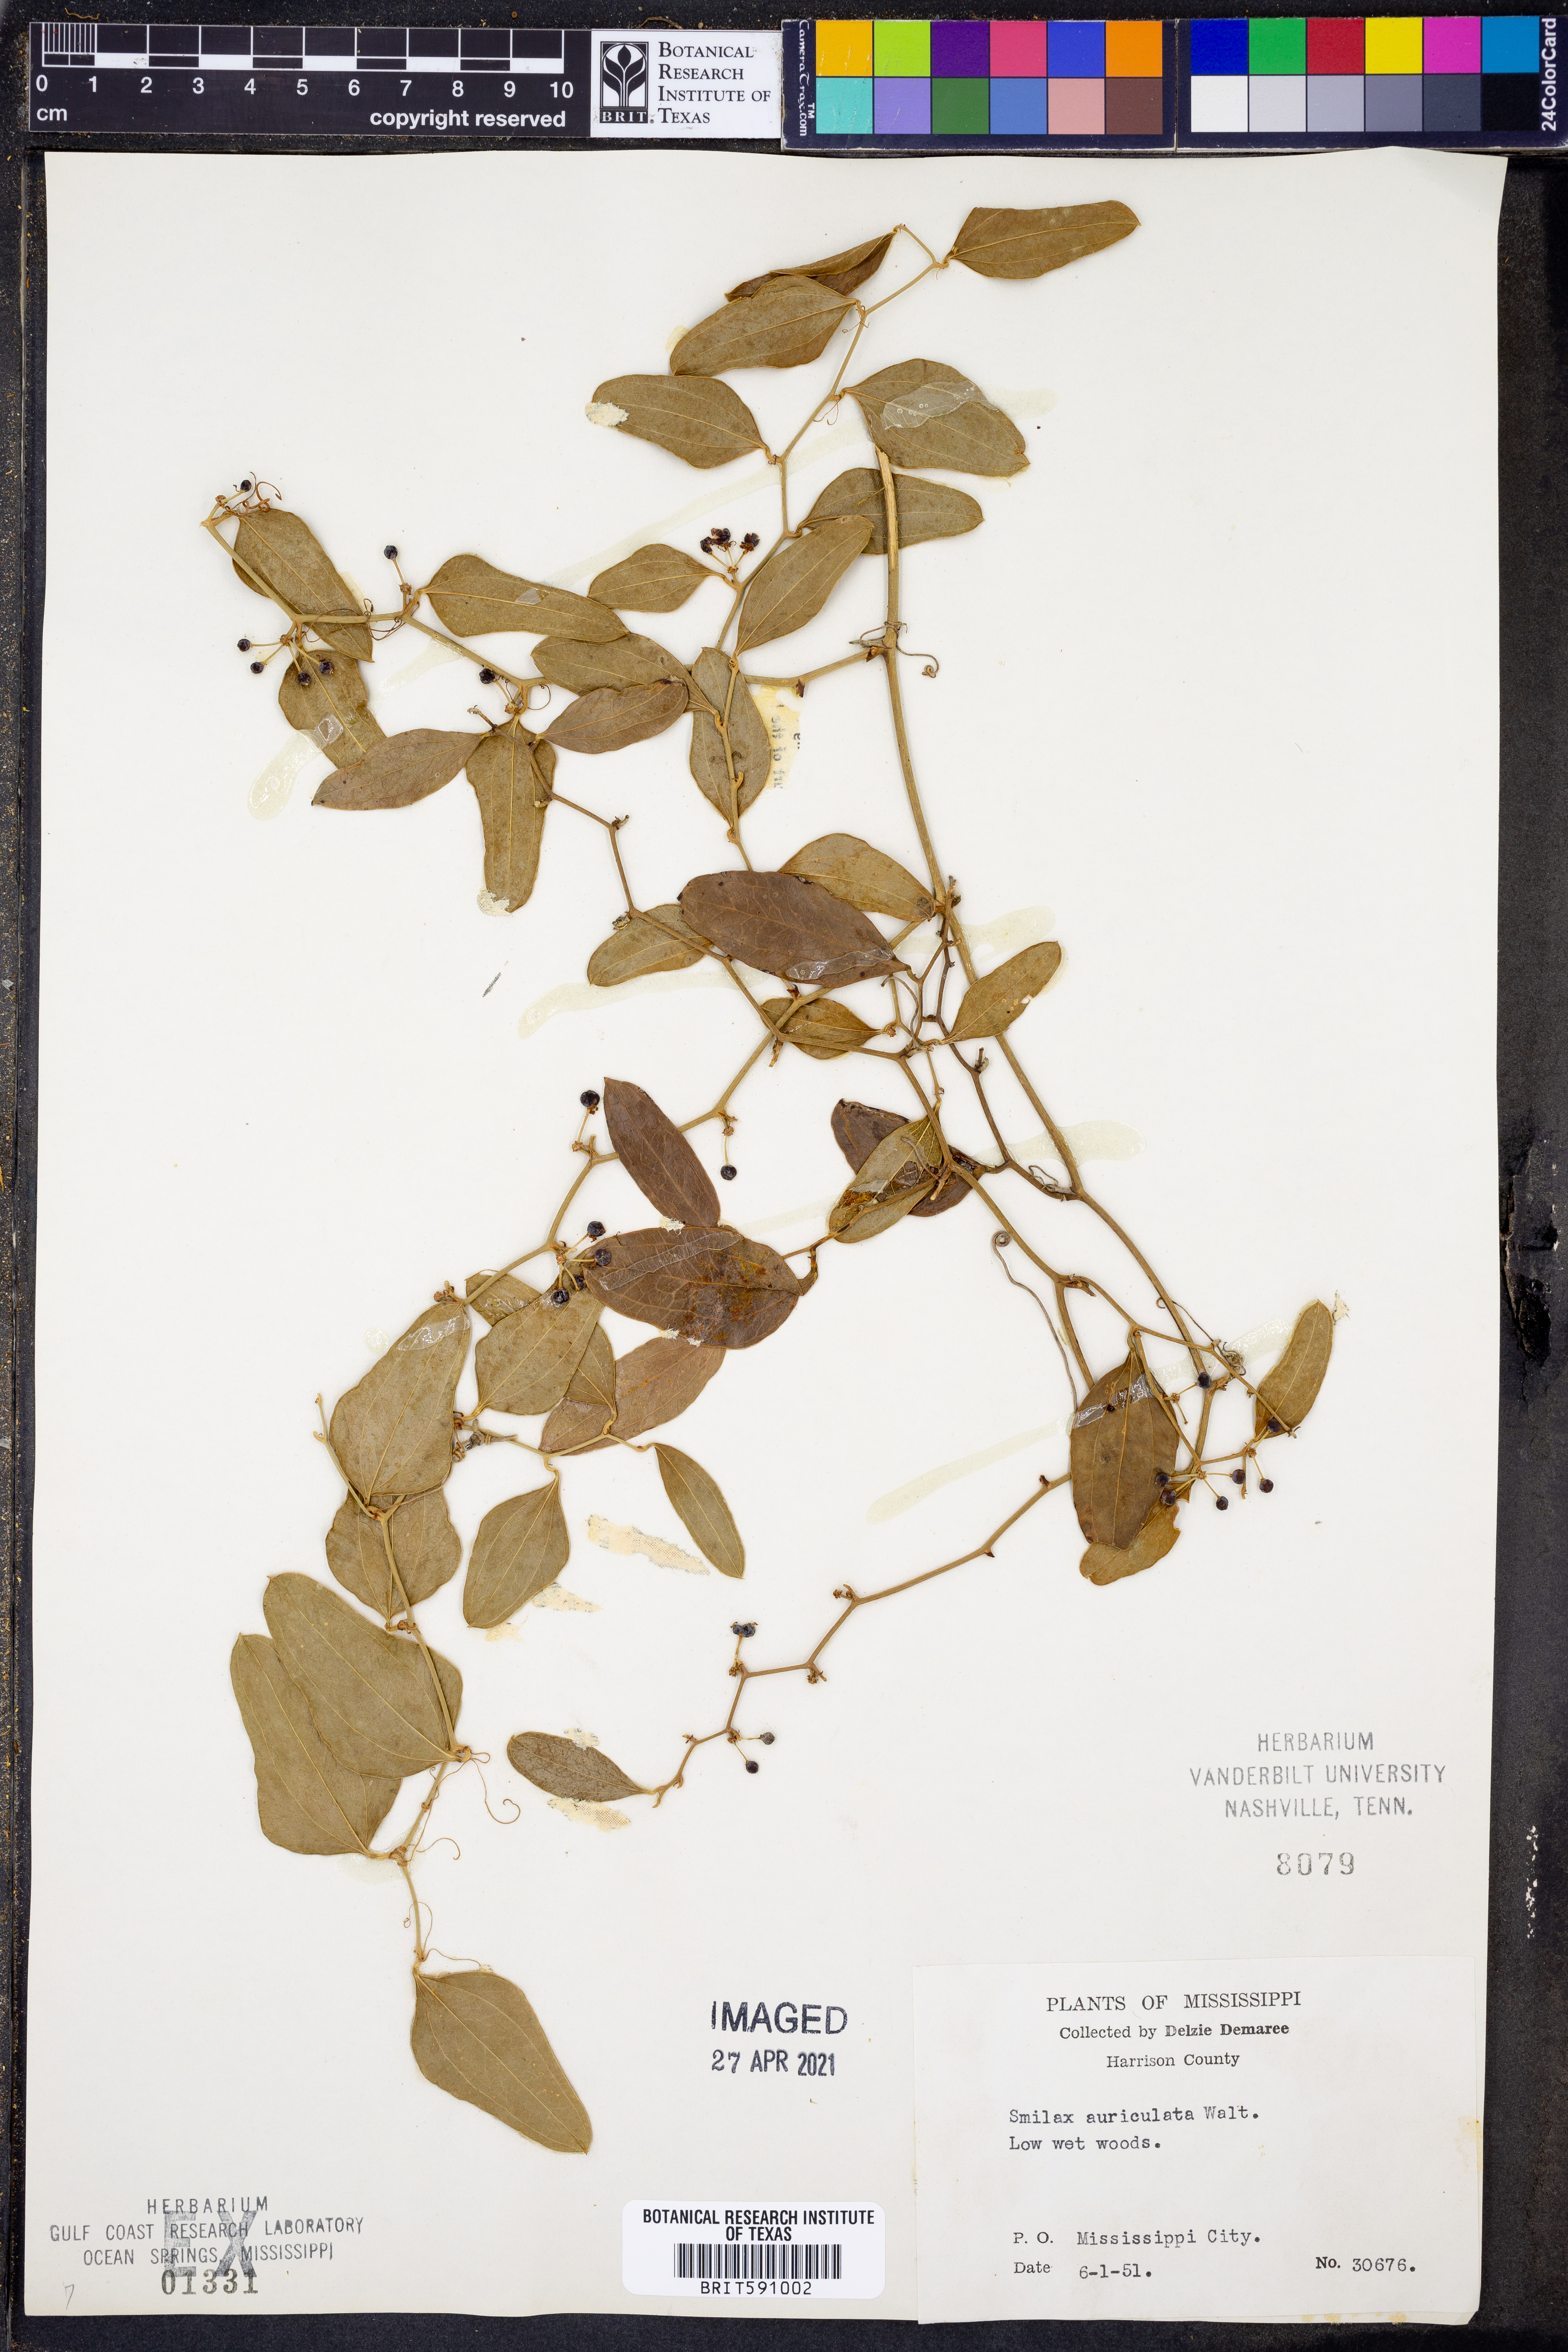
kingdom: Plantae
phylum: Tracheophyta
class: Liliopsida
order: Liliales
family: Smilacaceae
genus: Smilax
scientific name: Smilax auriculata
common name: Wild bamboo
